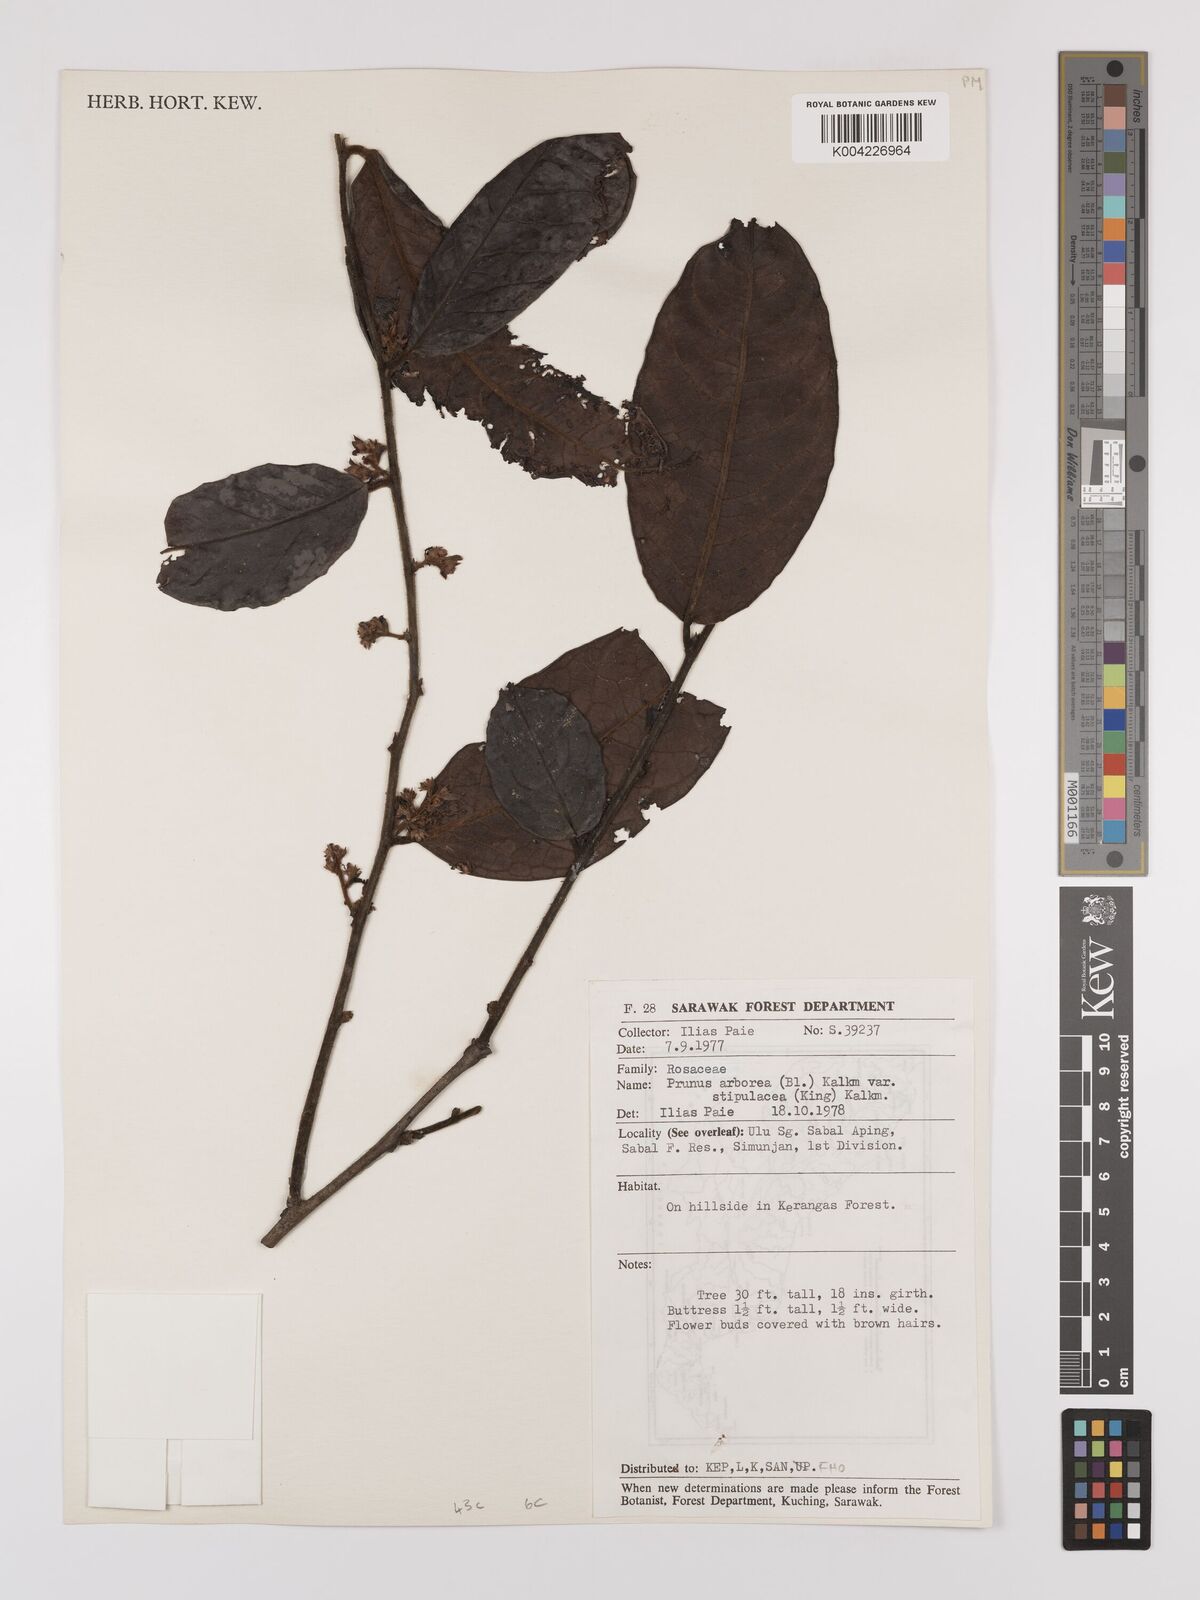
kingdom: Plantae
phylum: Tracheophyta
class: Magnoliopsida
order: Rosales
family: Rosaceae
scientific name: Rosaceae
